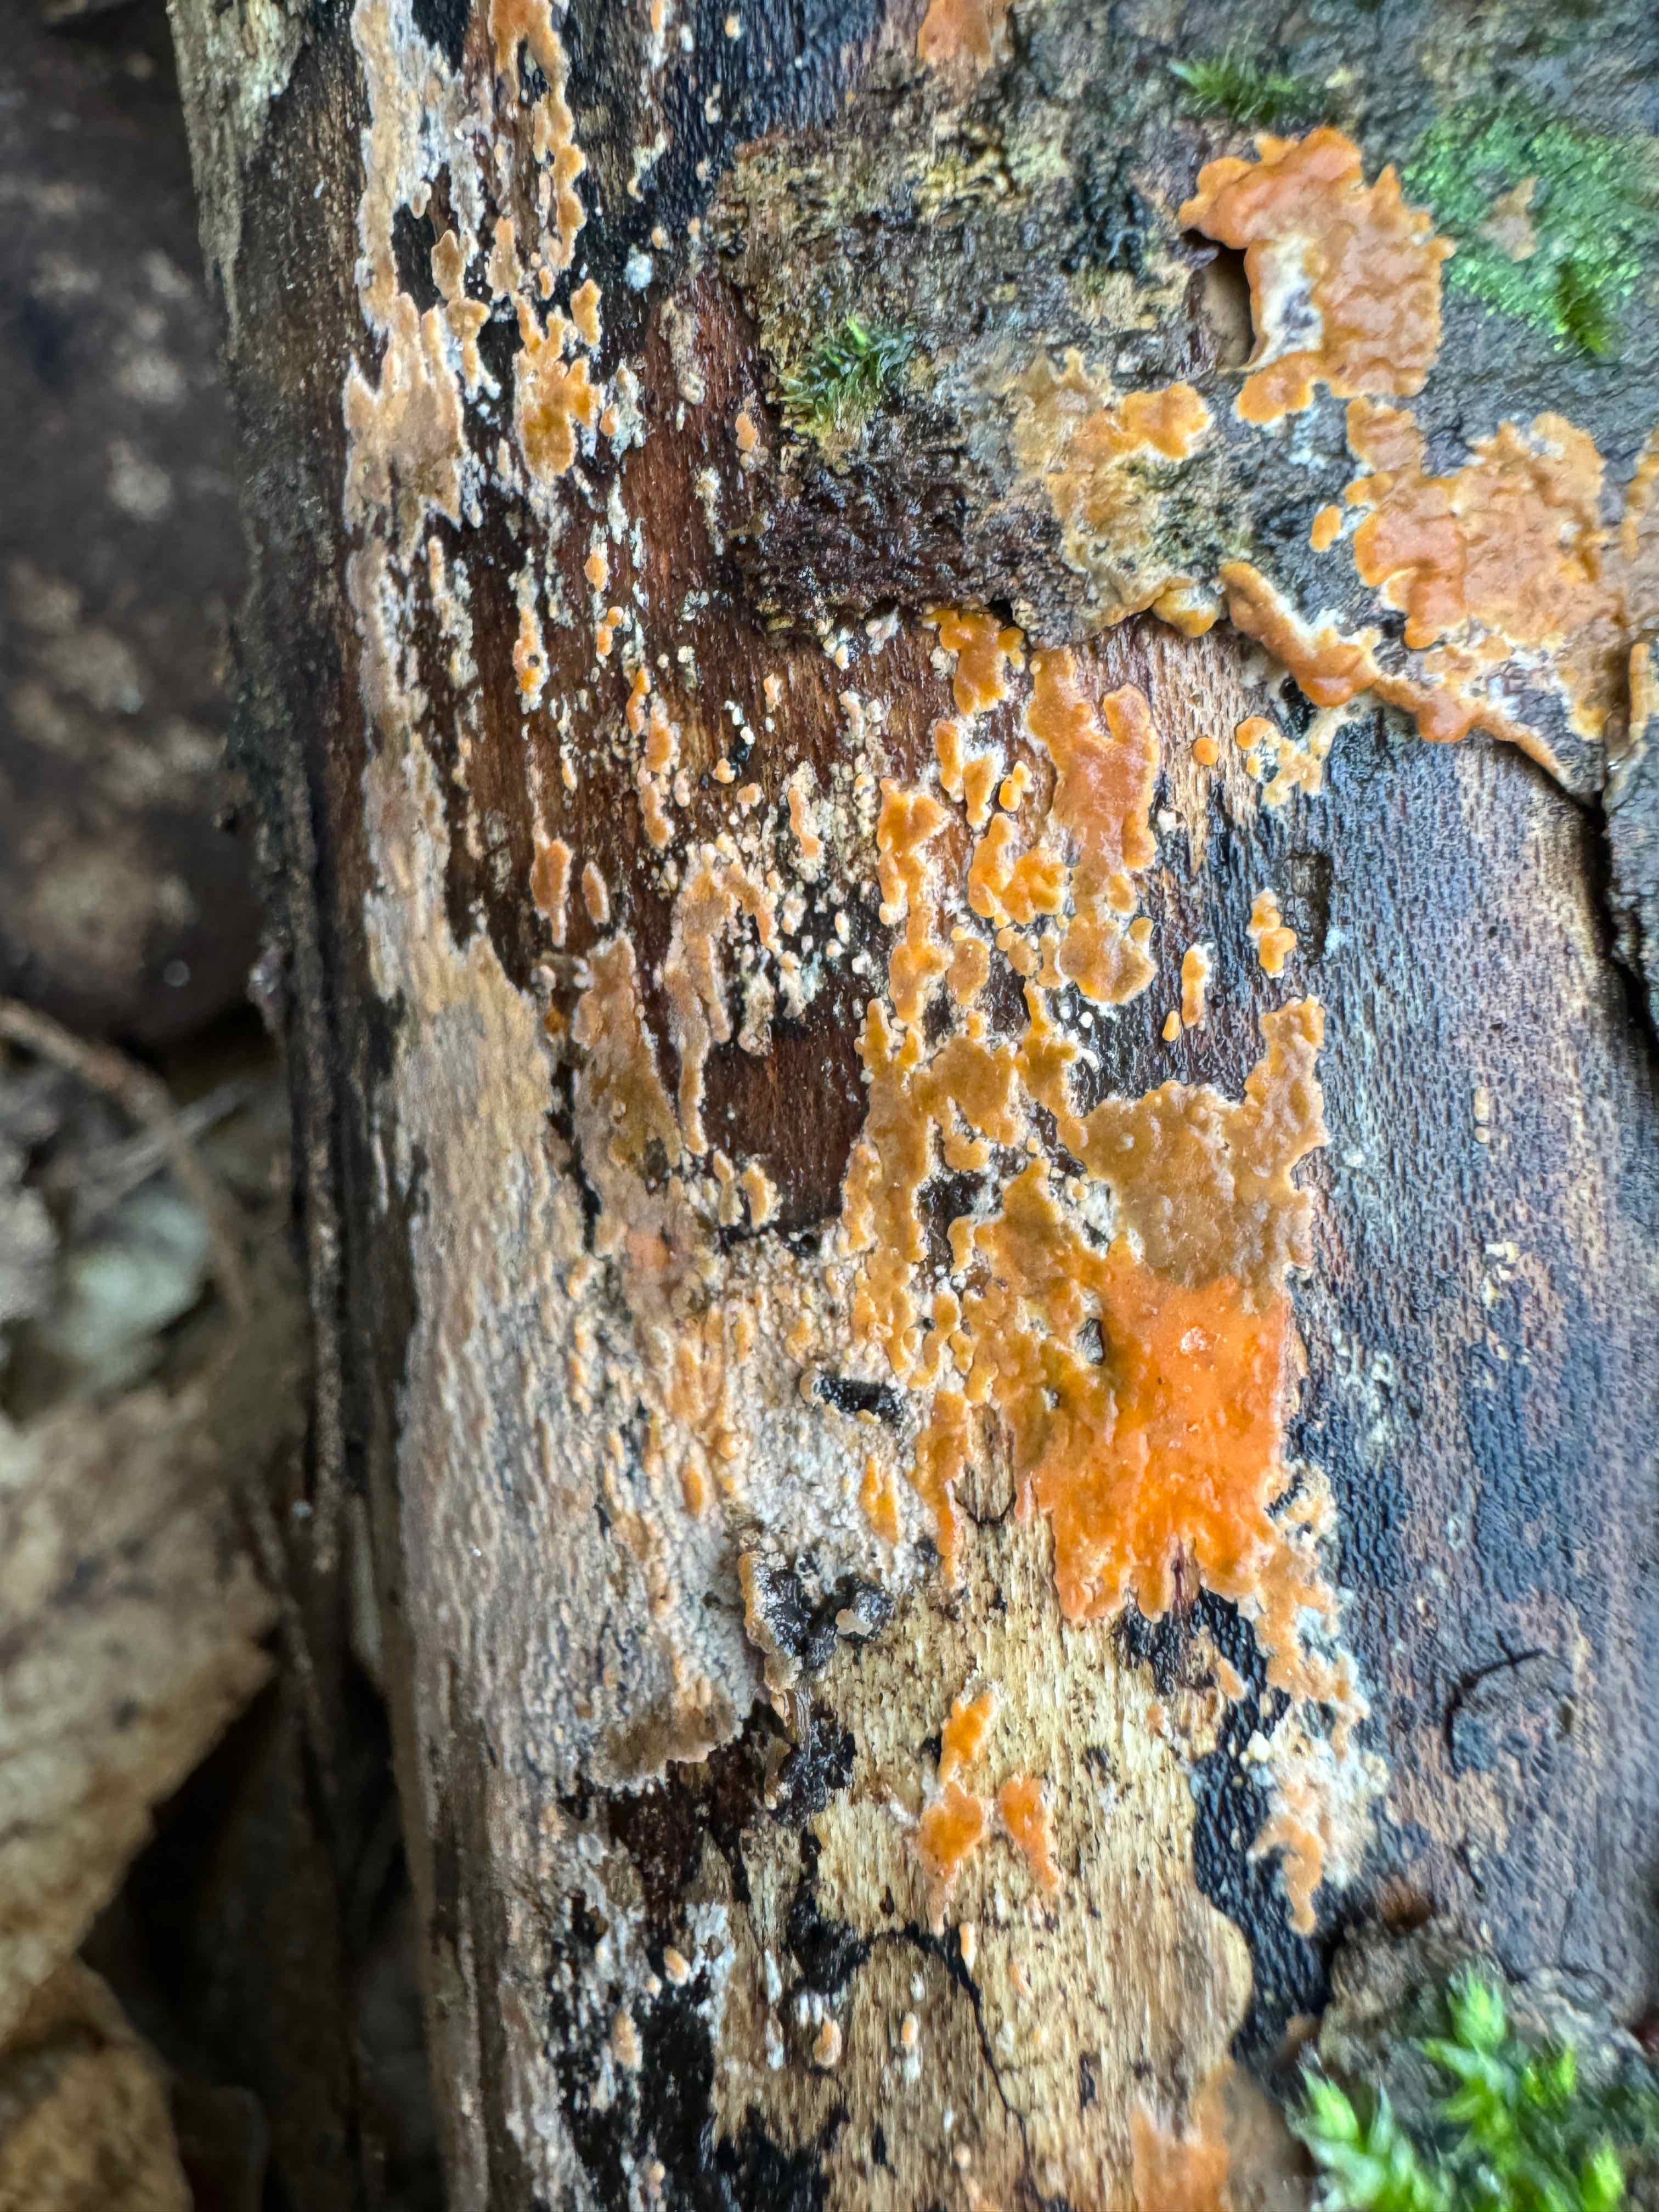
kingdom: Fungi
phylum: Basidiomycota
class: Agaricomycetes
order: Russulales
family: Peniophoraceae
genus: Peniophora
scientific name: Peniophora incarnata
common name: laksefarvet voksskind
